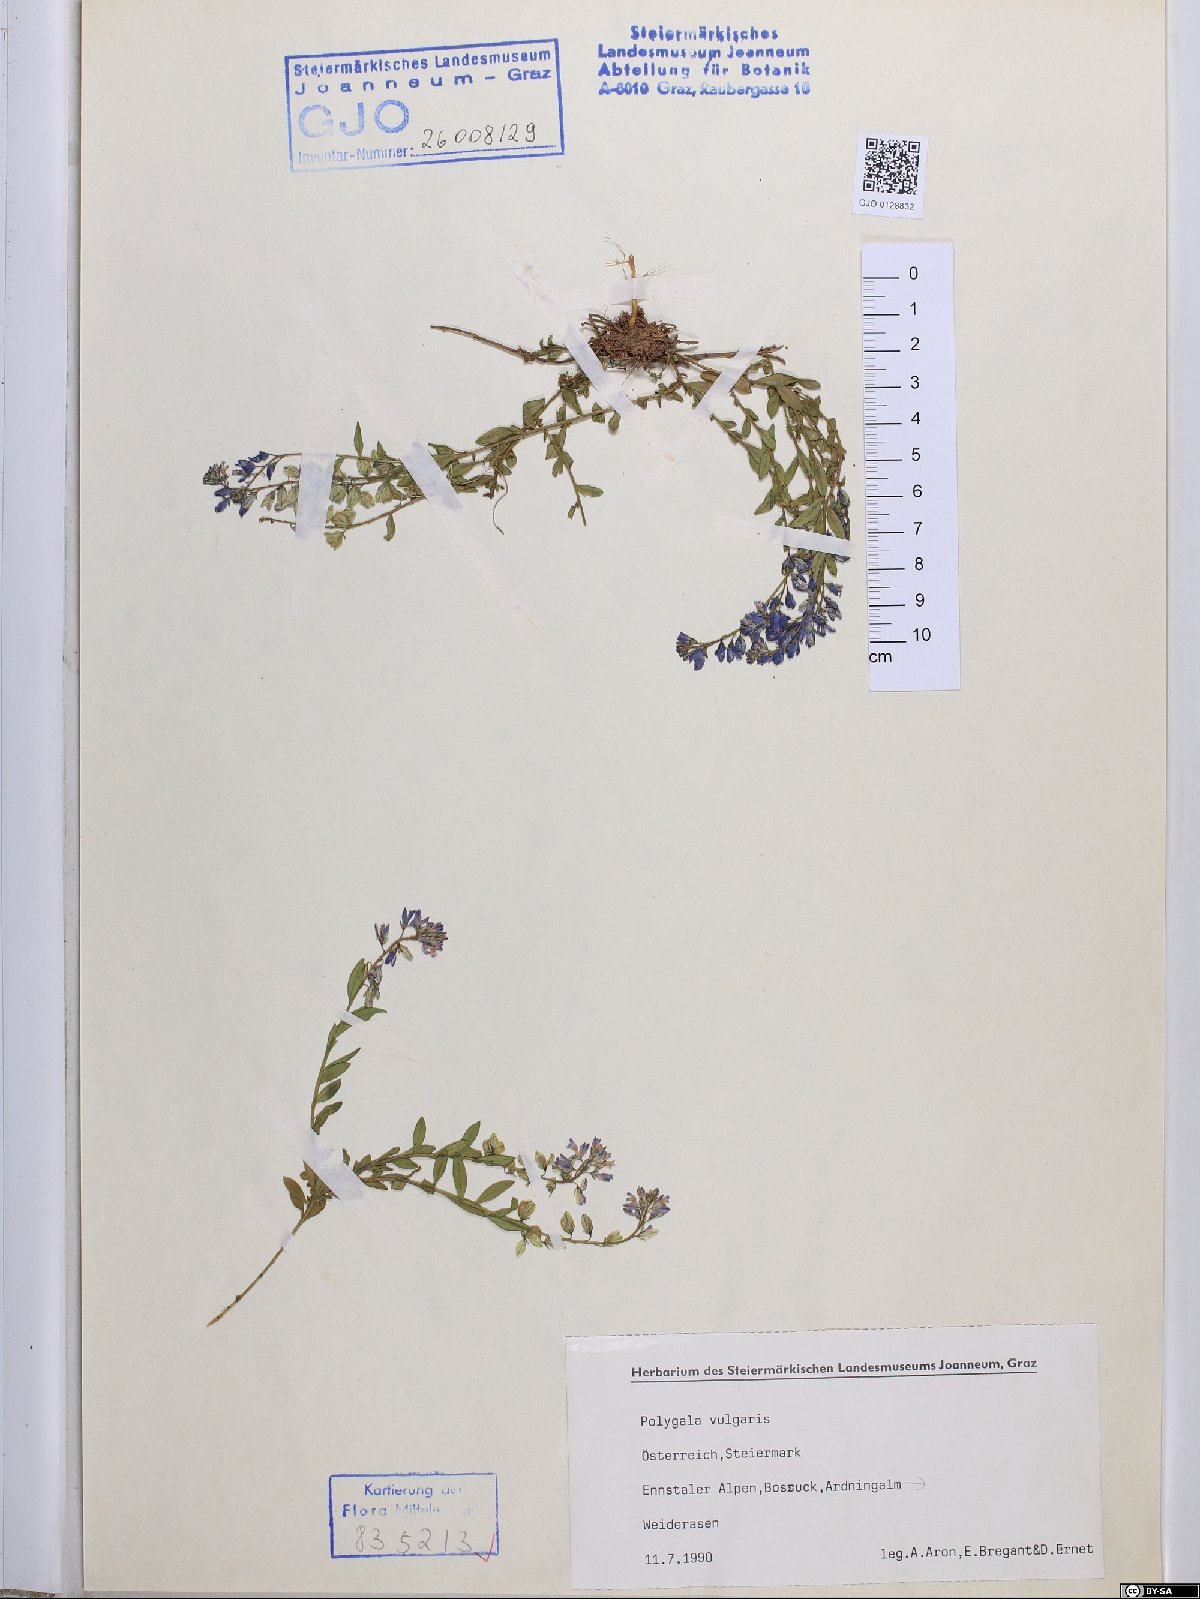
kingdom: Plantae
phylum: Tracheophyta
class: Magnoliopsida
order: Fabales
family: Polygalaceae
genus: Polygala
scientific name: Polygala vulgaris
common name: Common milkwort
